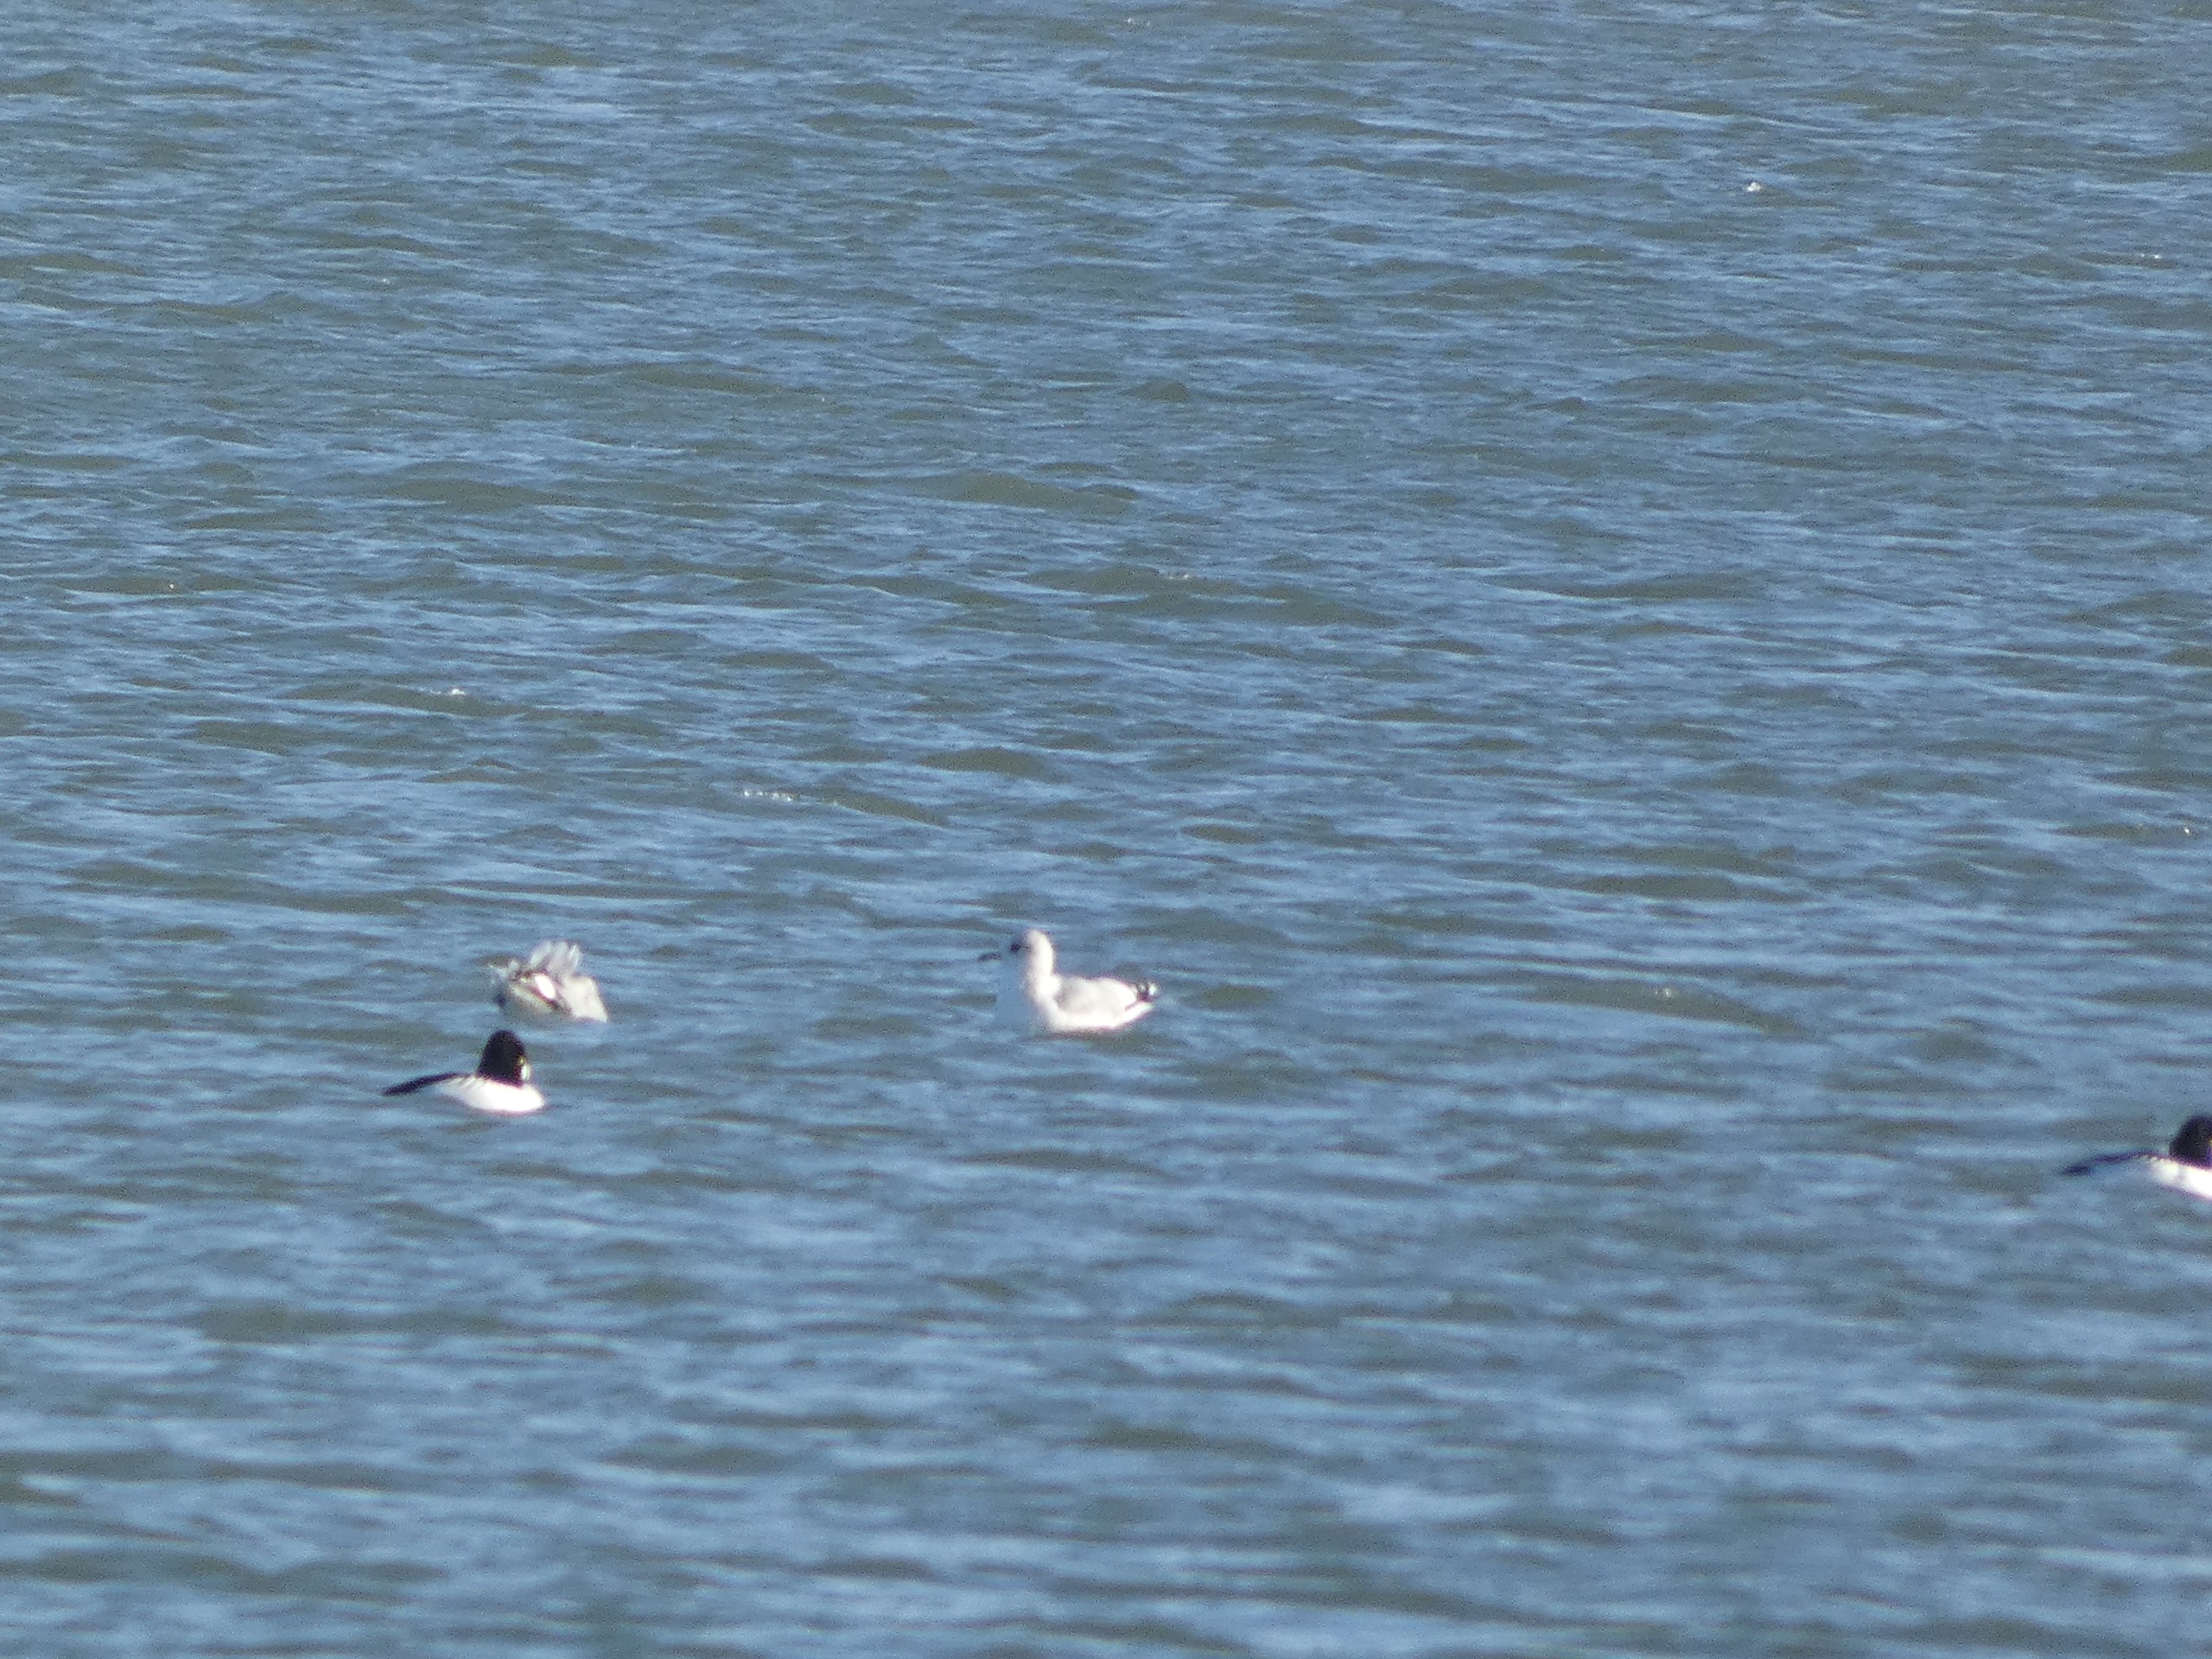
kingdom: Animalia
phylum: Chordata
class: Aves
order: Charadriiformes
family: Laridae
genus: Larus
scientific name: Larus canus
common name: Stormmåge
